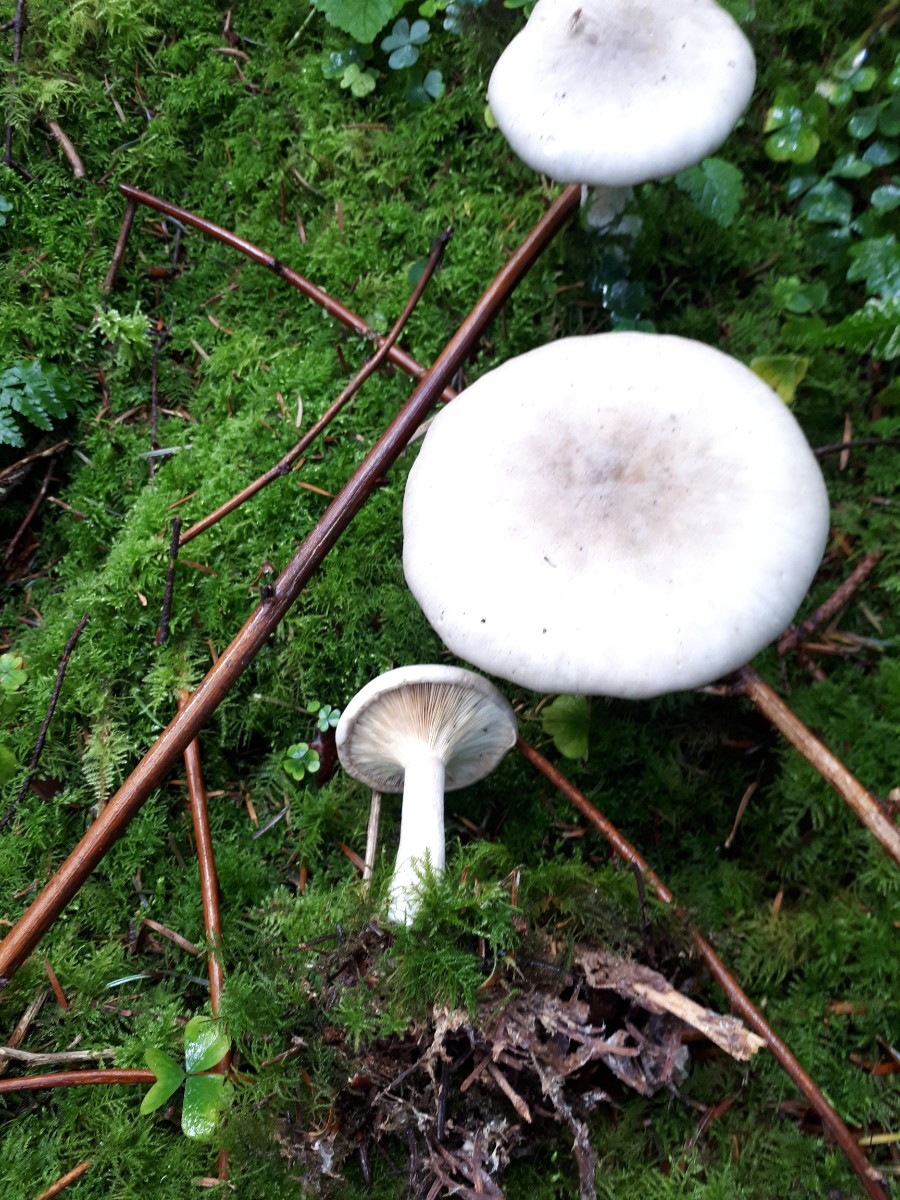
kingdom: Fungi
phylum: Basidiomycota
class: Agaricomycetes
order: Agaricales
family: Tricholomataceae
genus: Clitocybe
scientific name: Clitocybe nebularis
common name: tåge-tragthat
